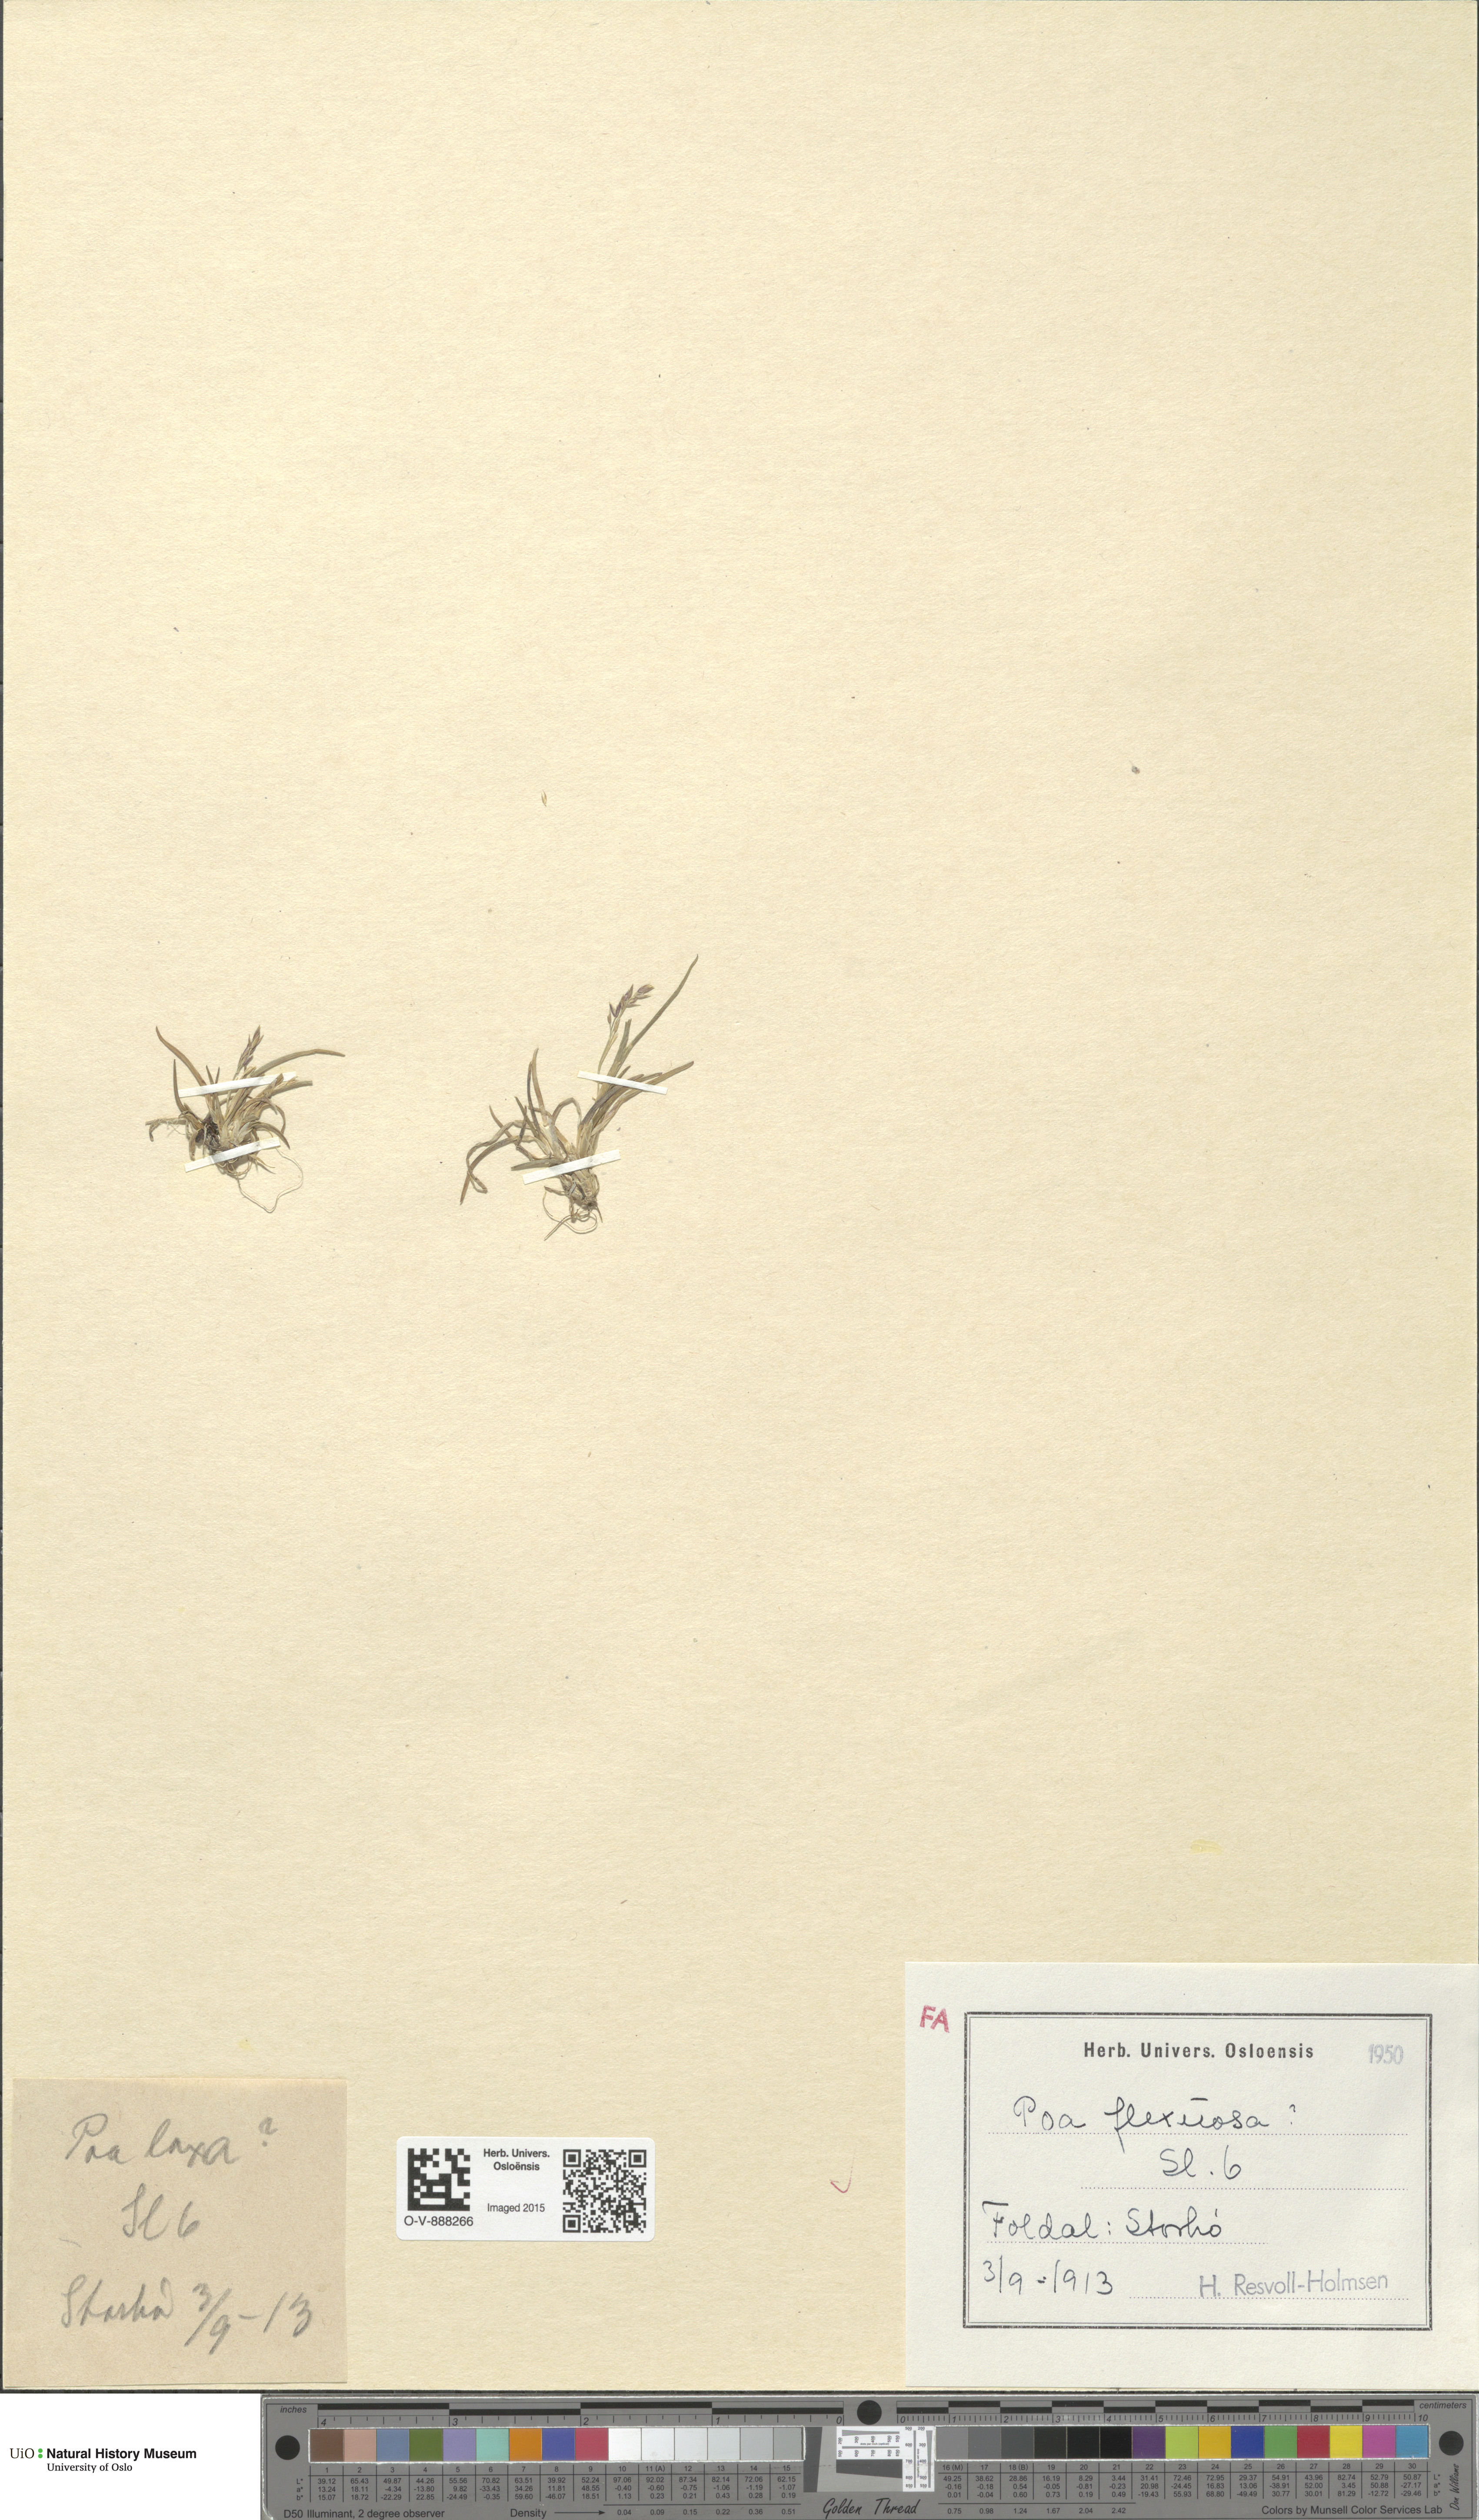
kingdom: Plantae
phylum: Tracheophyta
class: Liliopsida
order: Poales
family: Poaceae
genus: Poa
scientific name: Poa flexuosa
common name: Wavy meadow-grass
